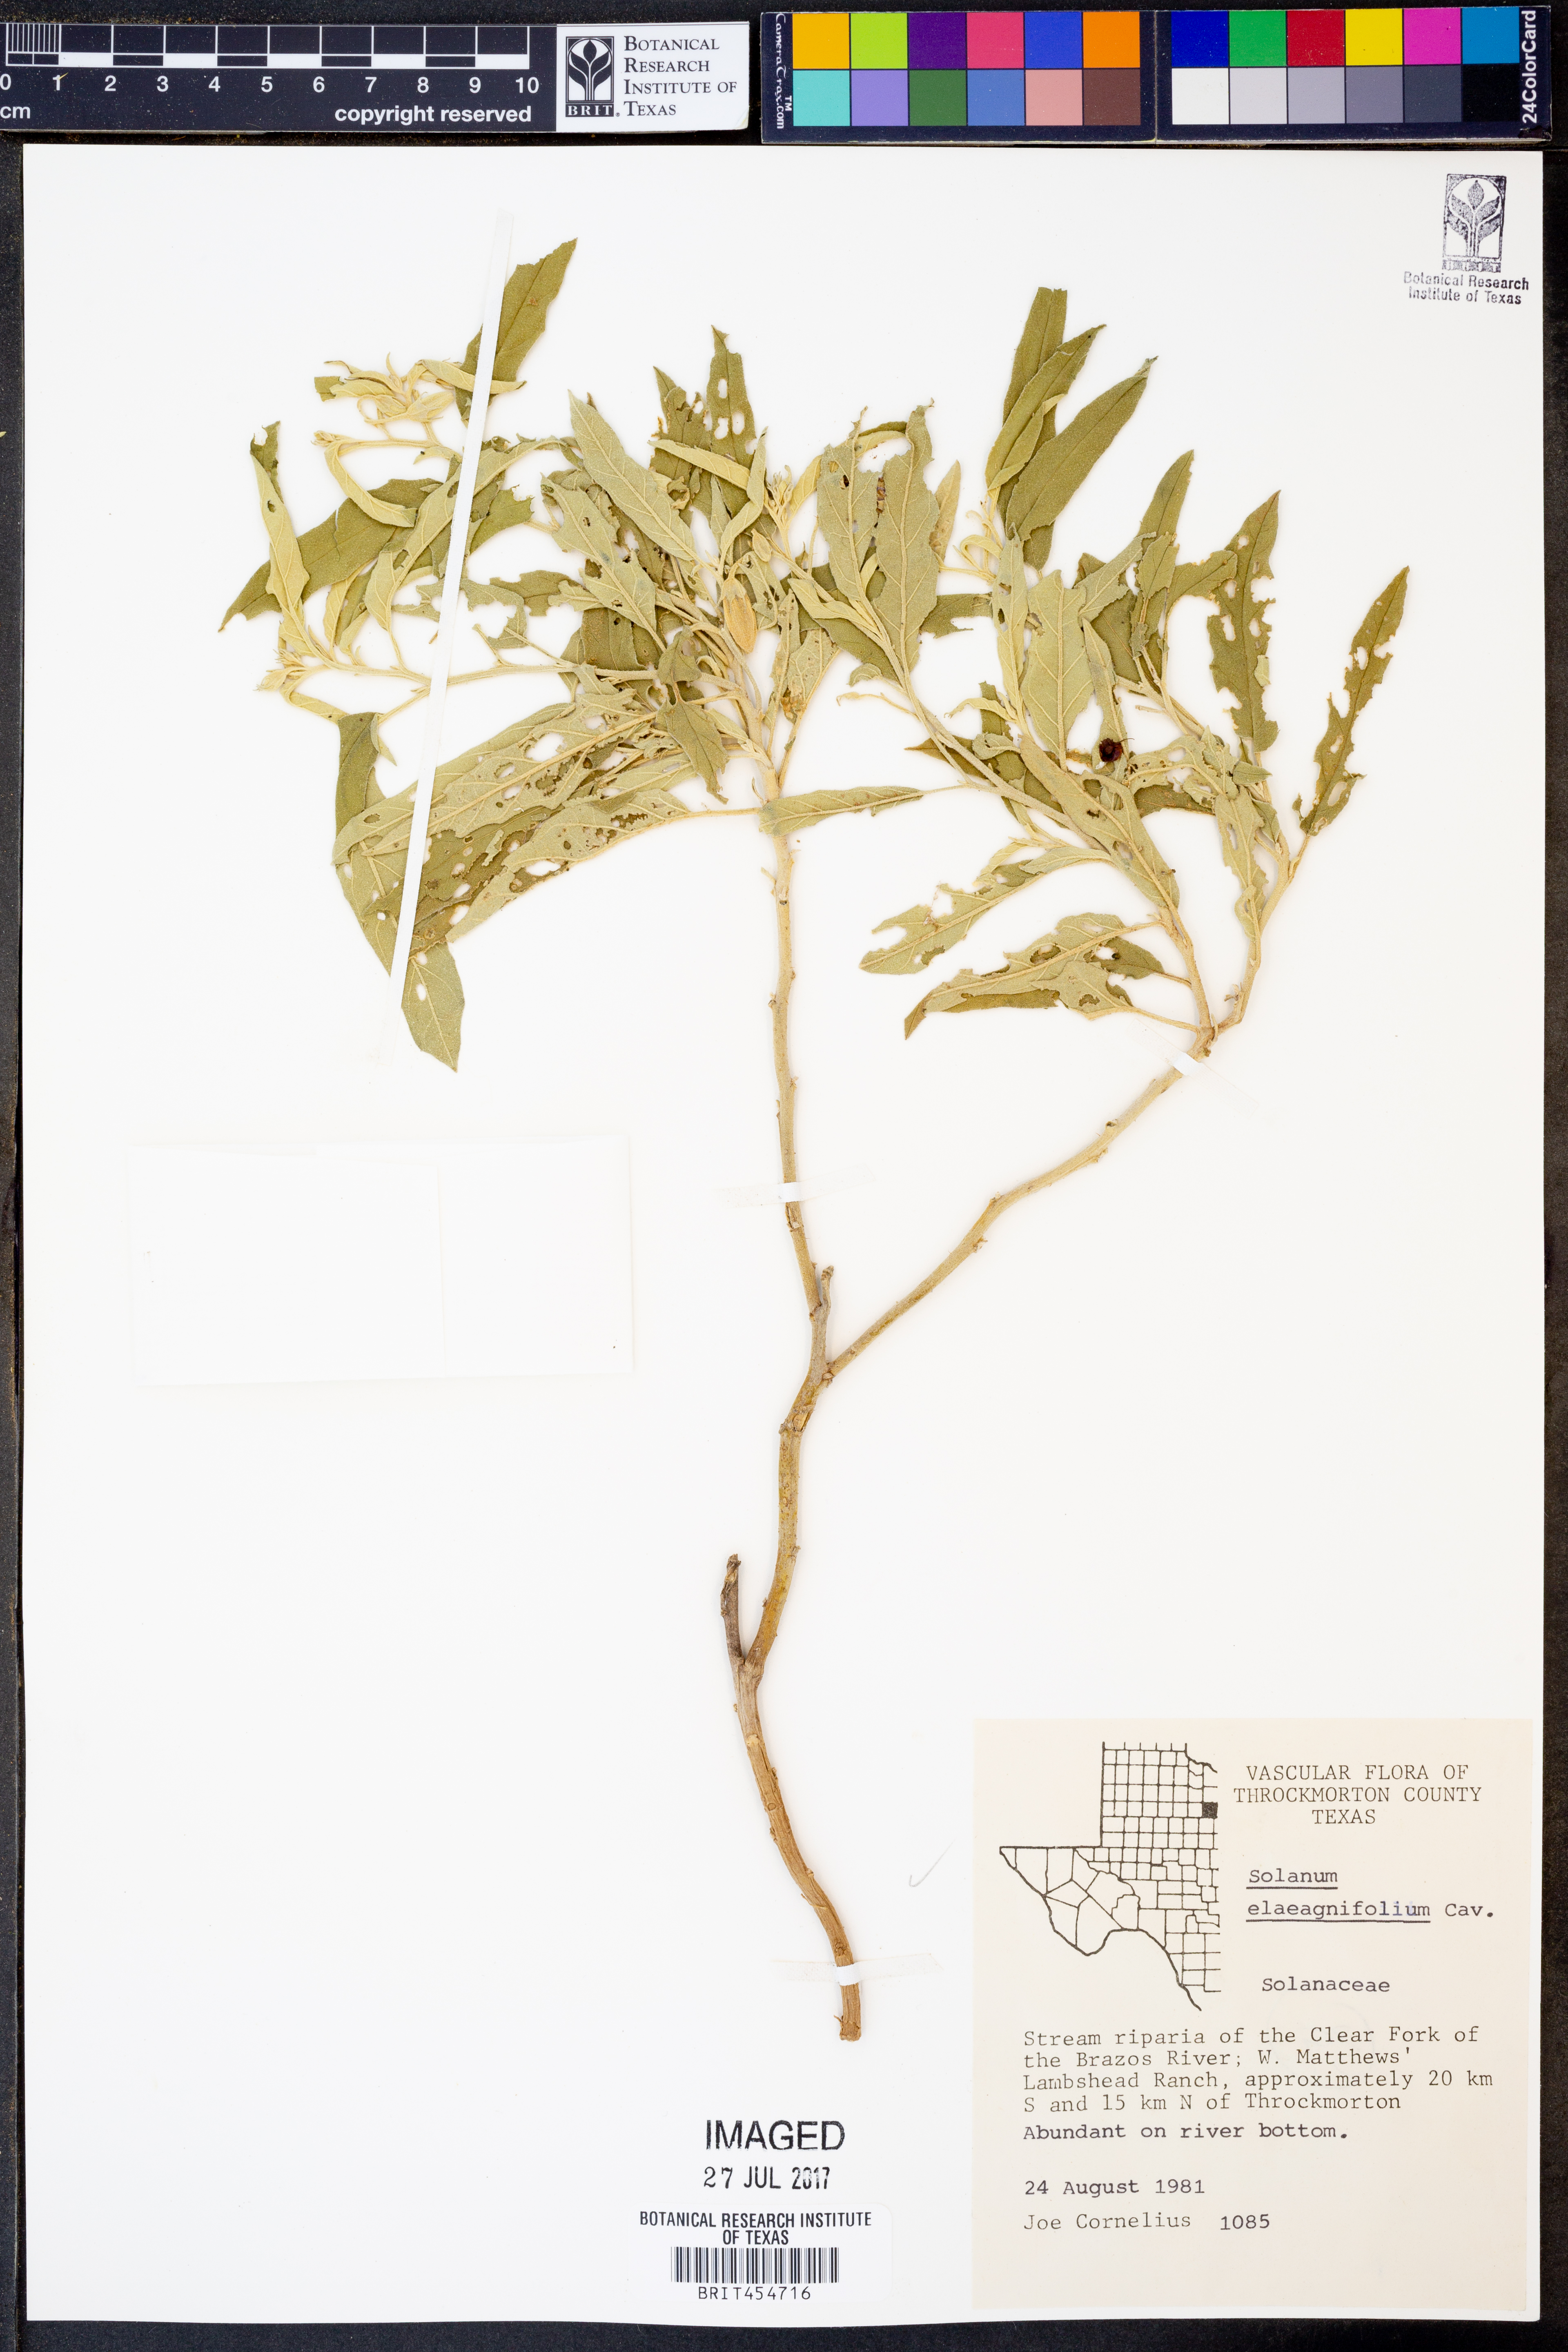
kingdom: Plantae
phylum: Tracheophyta
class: Magnoliopsida
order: Solanales
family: Solanaceae
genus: Solanum
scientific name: Solanum elaeagnifolium
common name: Silverleaf nightshade
